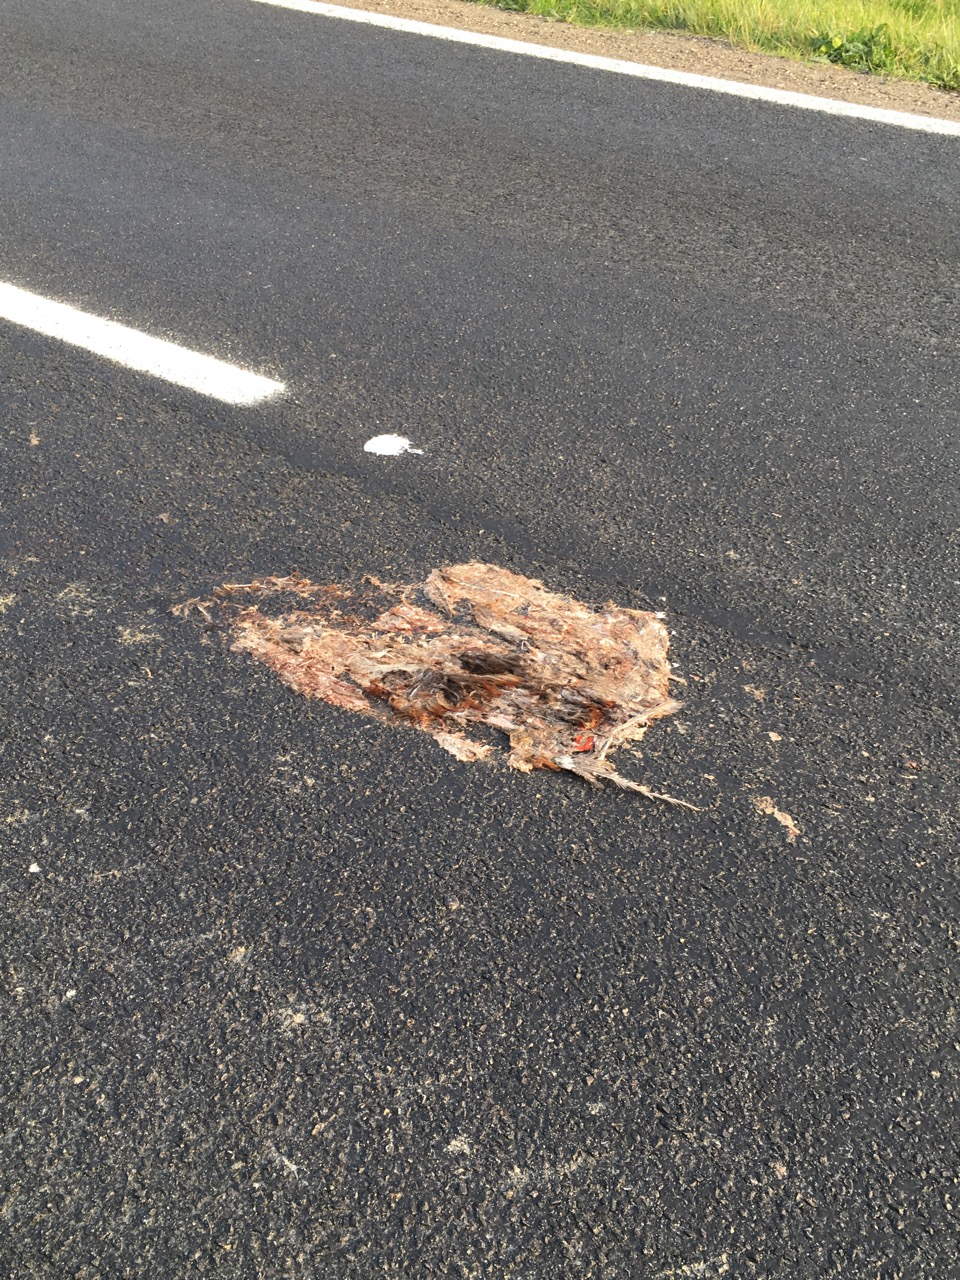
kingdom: Animalia
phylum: Chordata
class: Aves
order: Galliformes
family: Phasianidae
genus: Phasianus
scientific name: Phasianus colchicus
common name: Common pheasant
